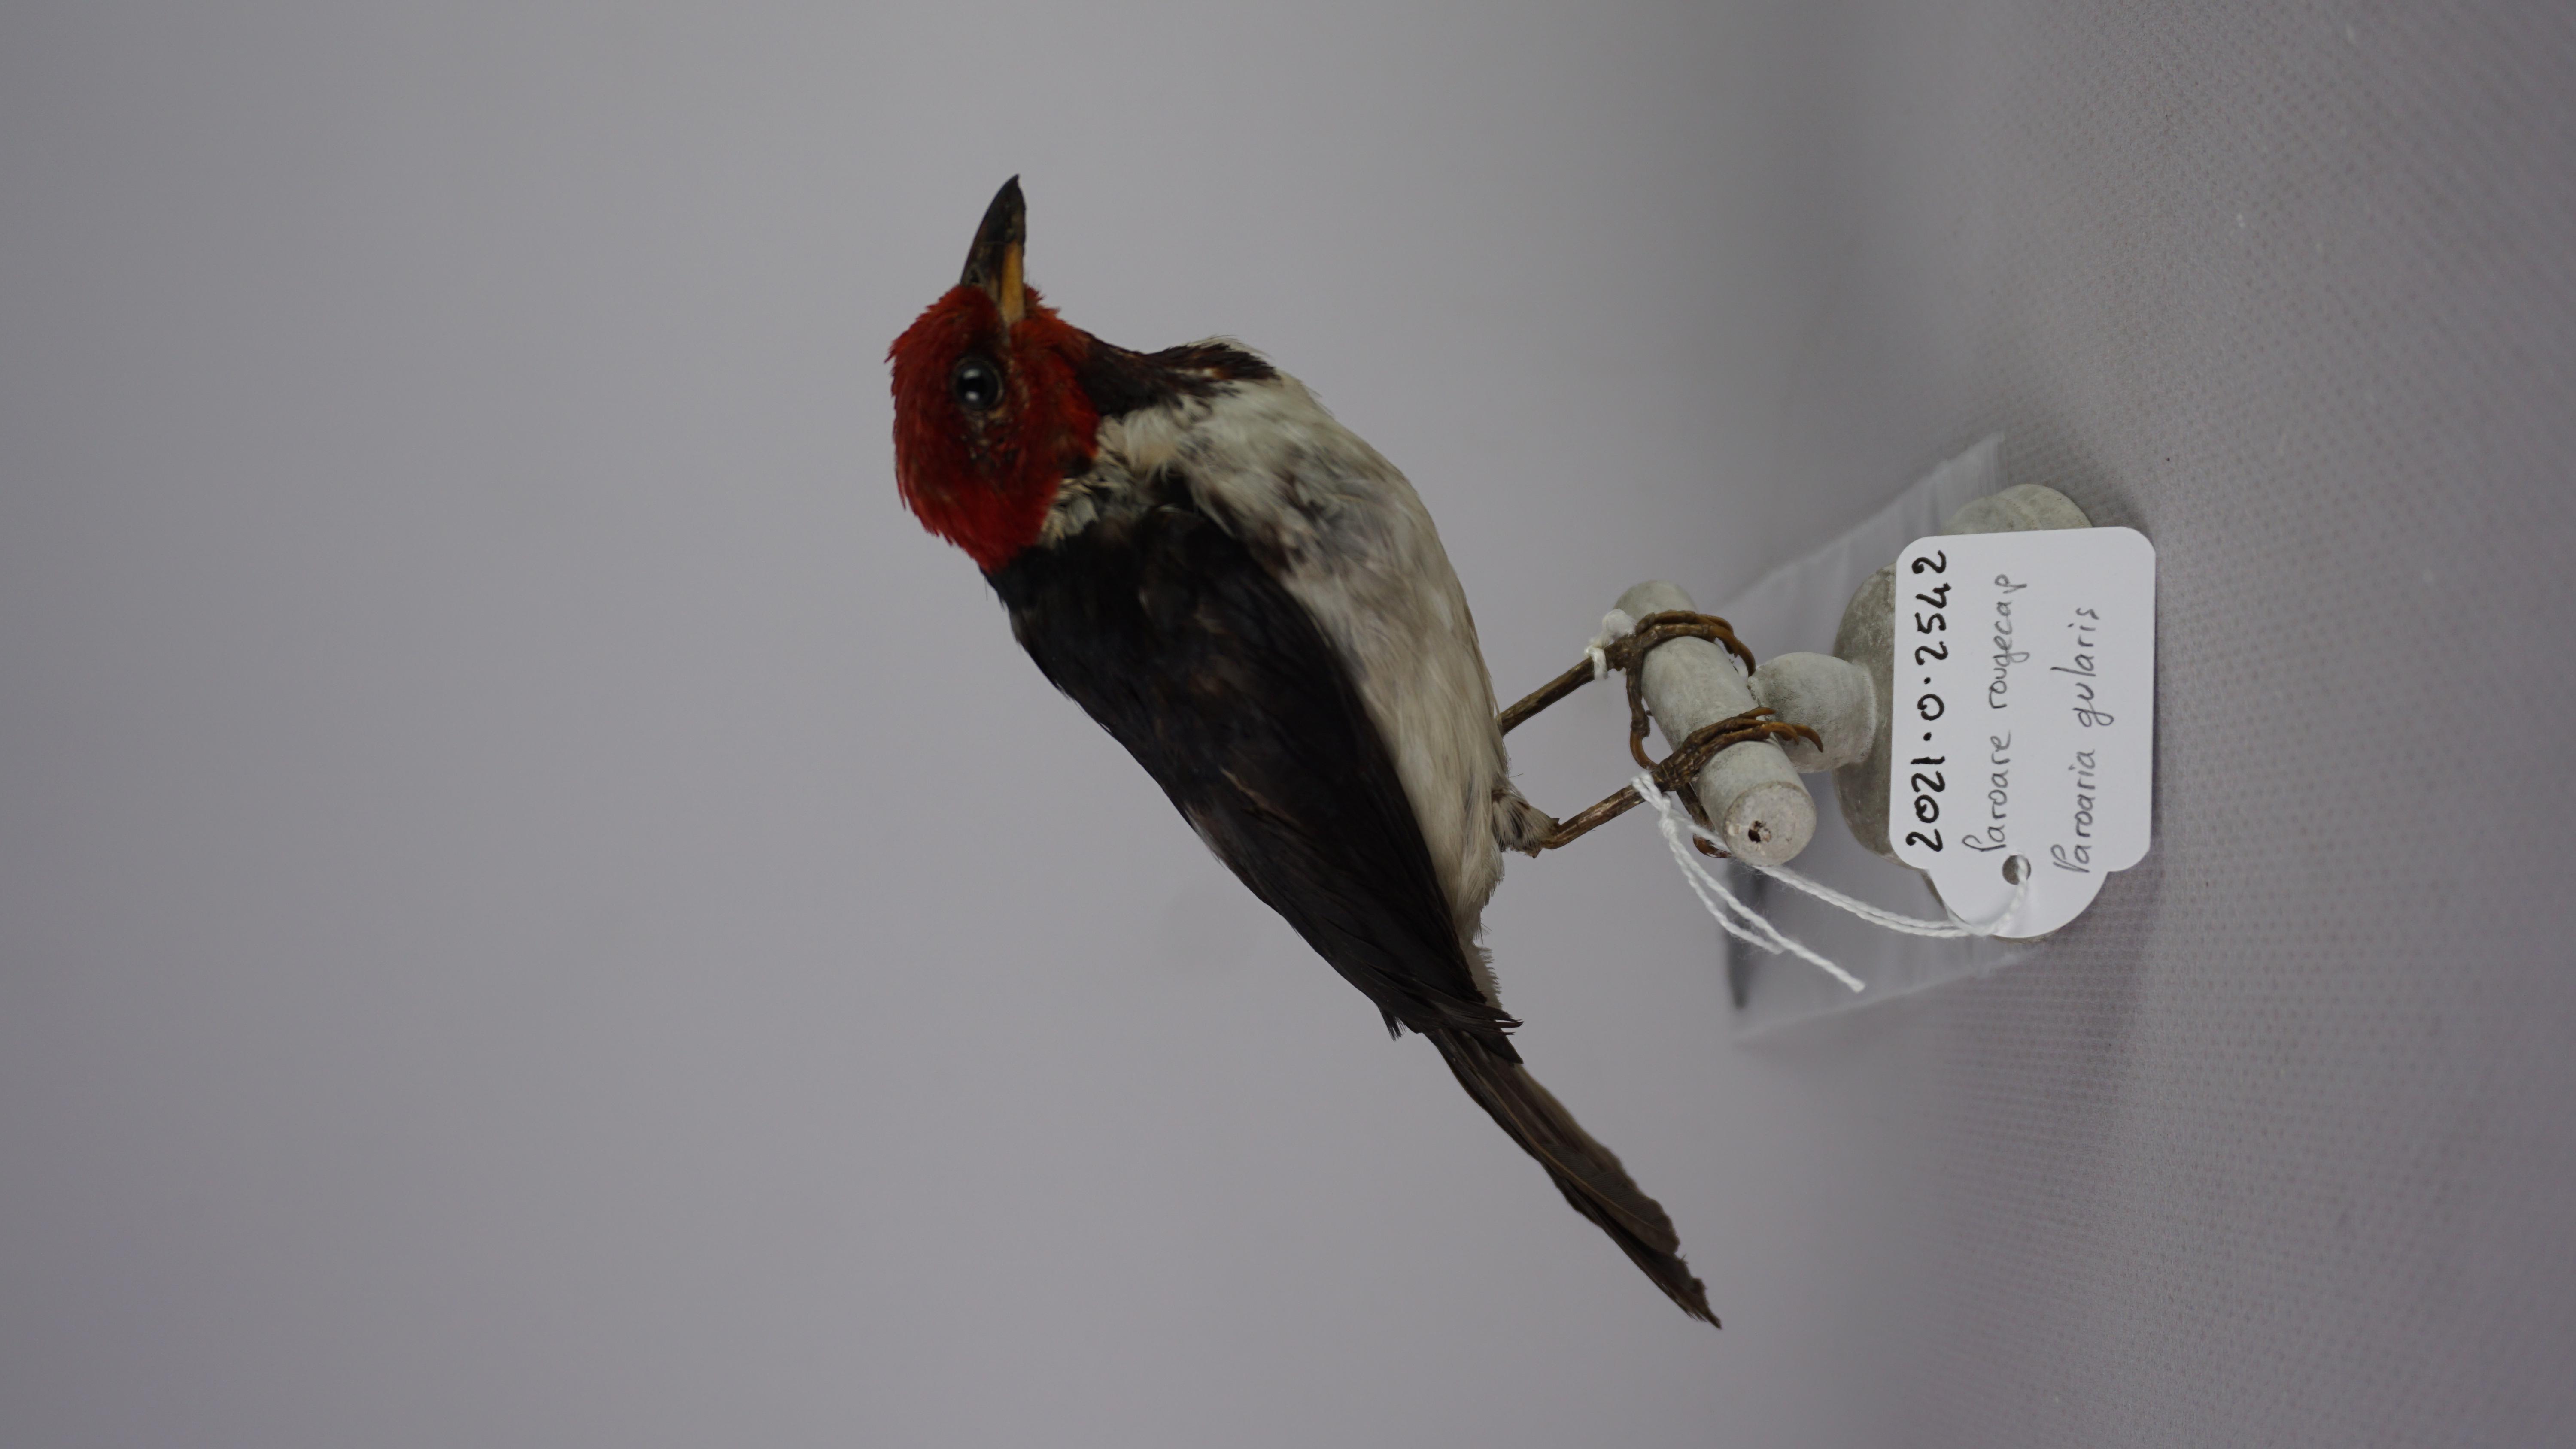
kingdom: Animalia
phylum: Chordata
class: Aves
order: Passeriformes
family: Thraupidae
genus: Paroaria
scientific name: Paroaria gularis
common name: Red-capped cardinal
